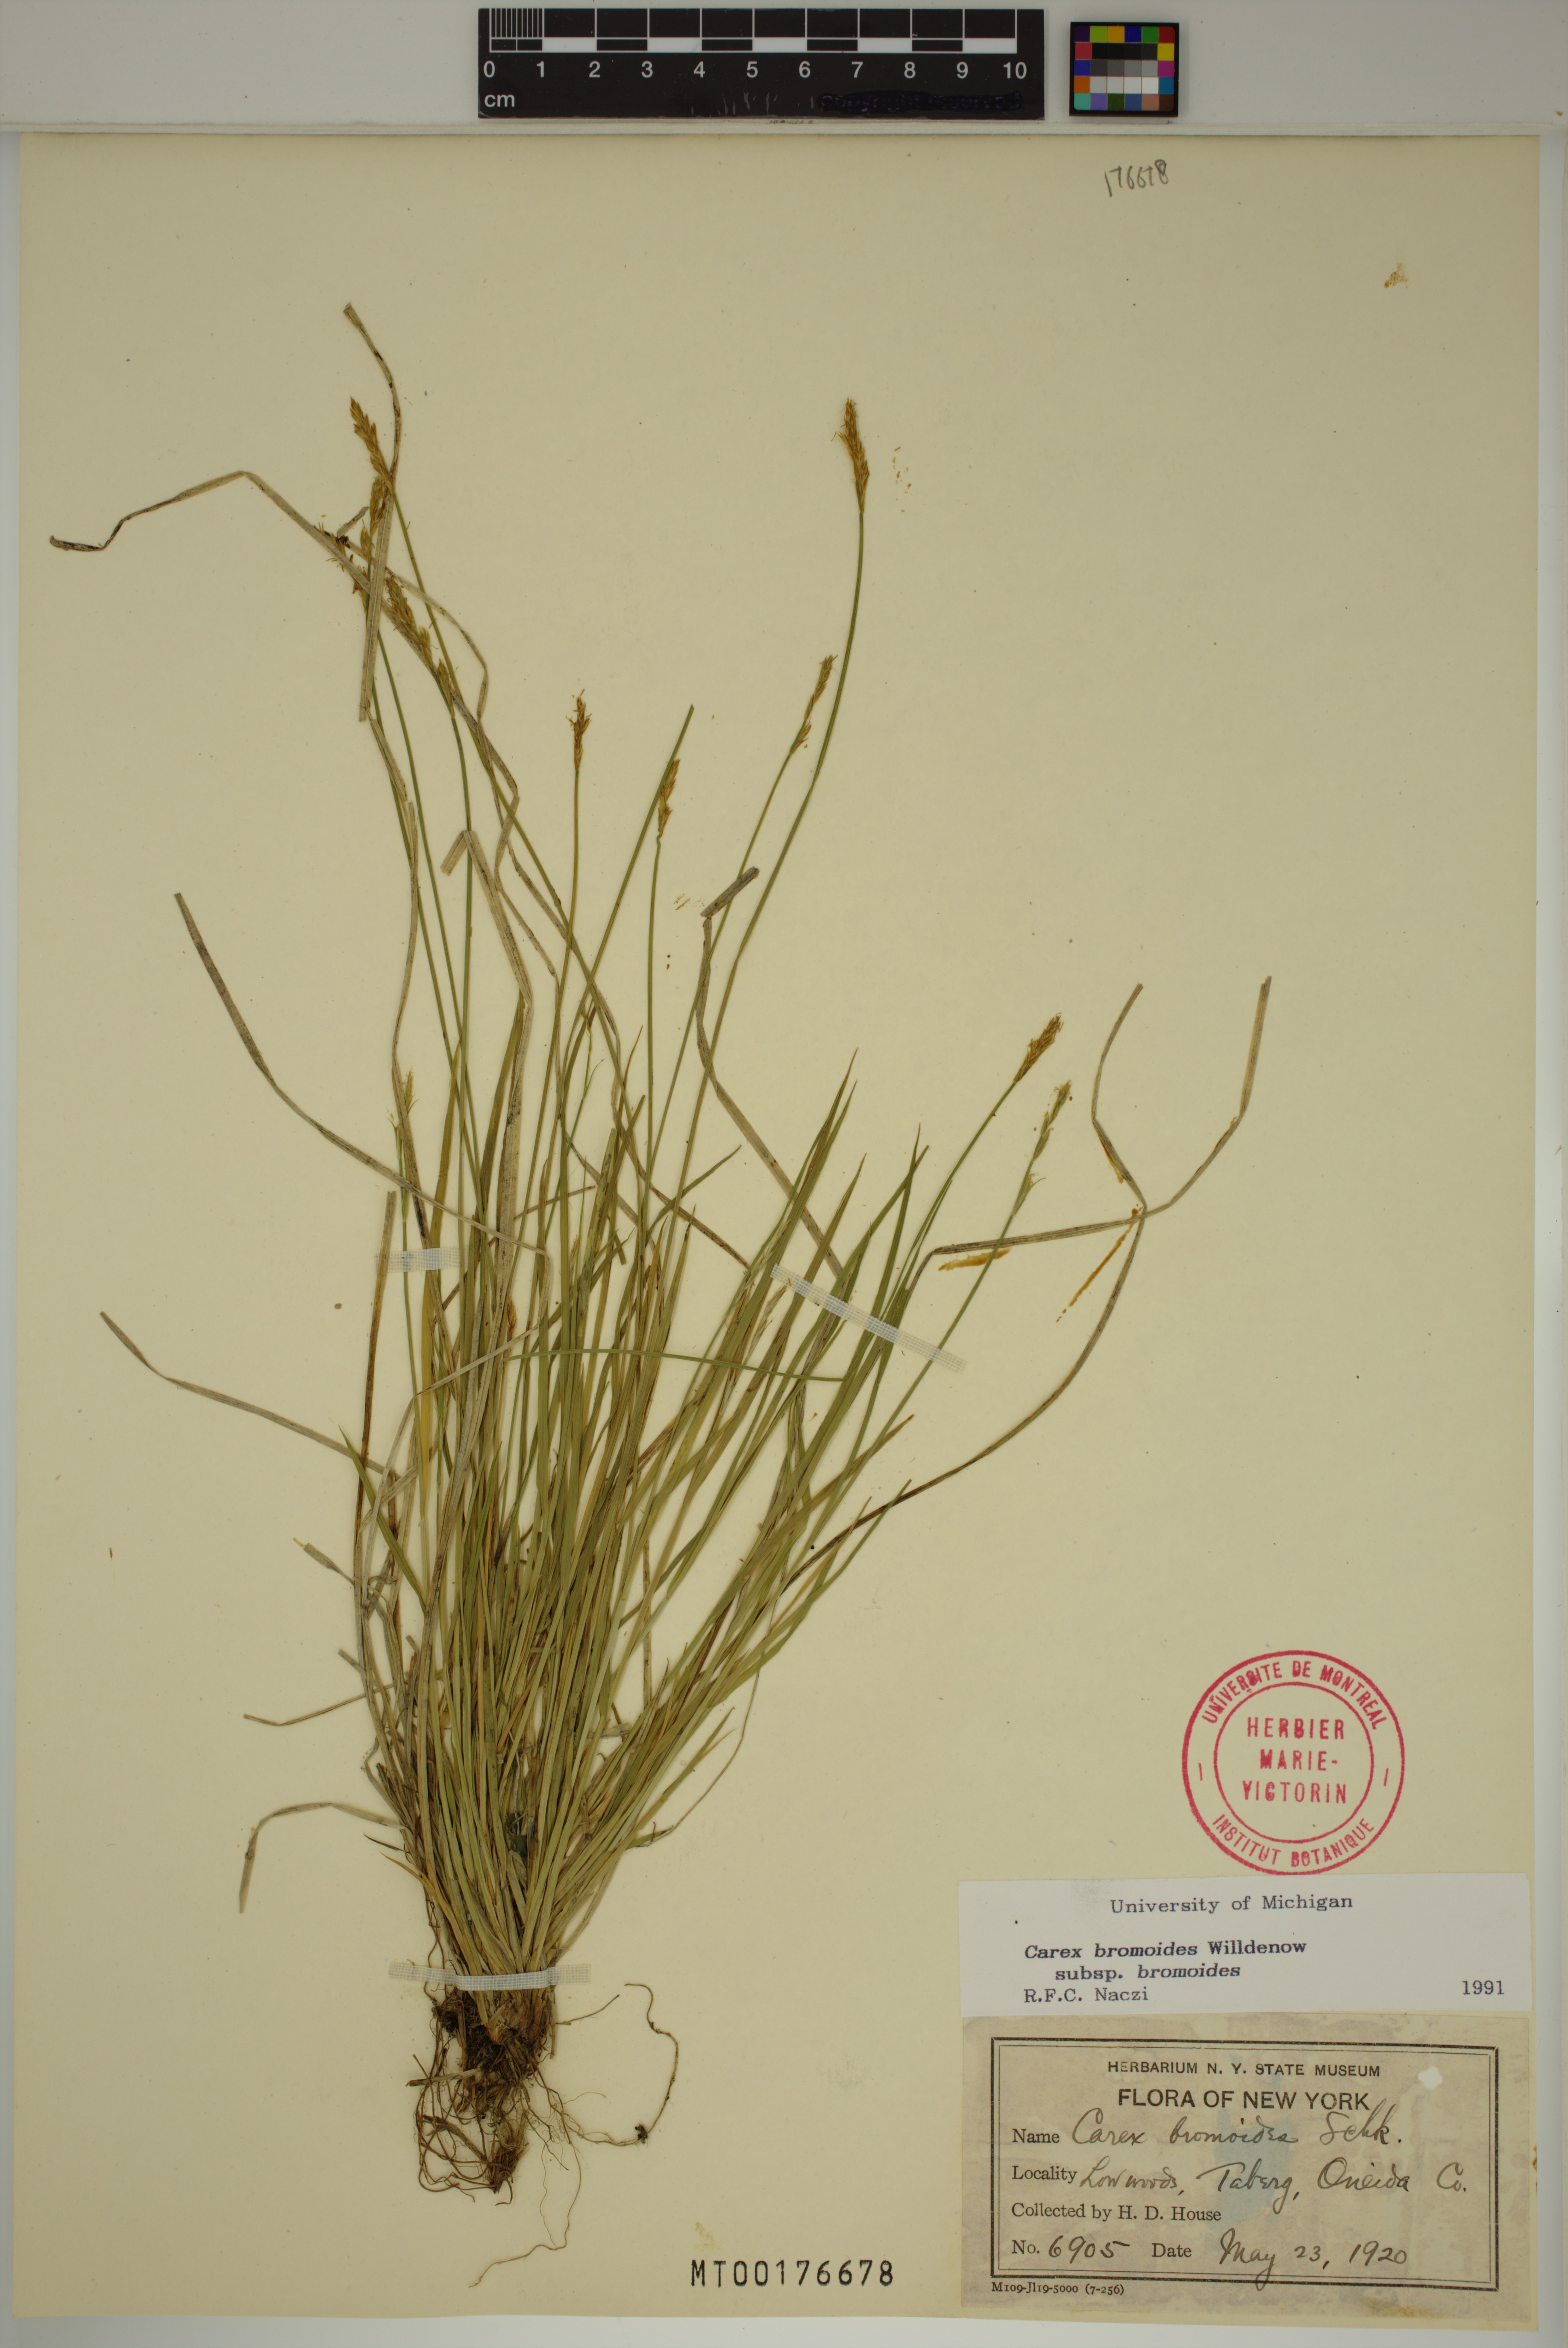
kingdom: Plantae
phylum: Tracheophyta
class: Liliopsida
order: Poales
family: Cyperaceae
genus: Carex
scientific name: Carex bromoides
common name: Brome hummock sedge
